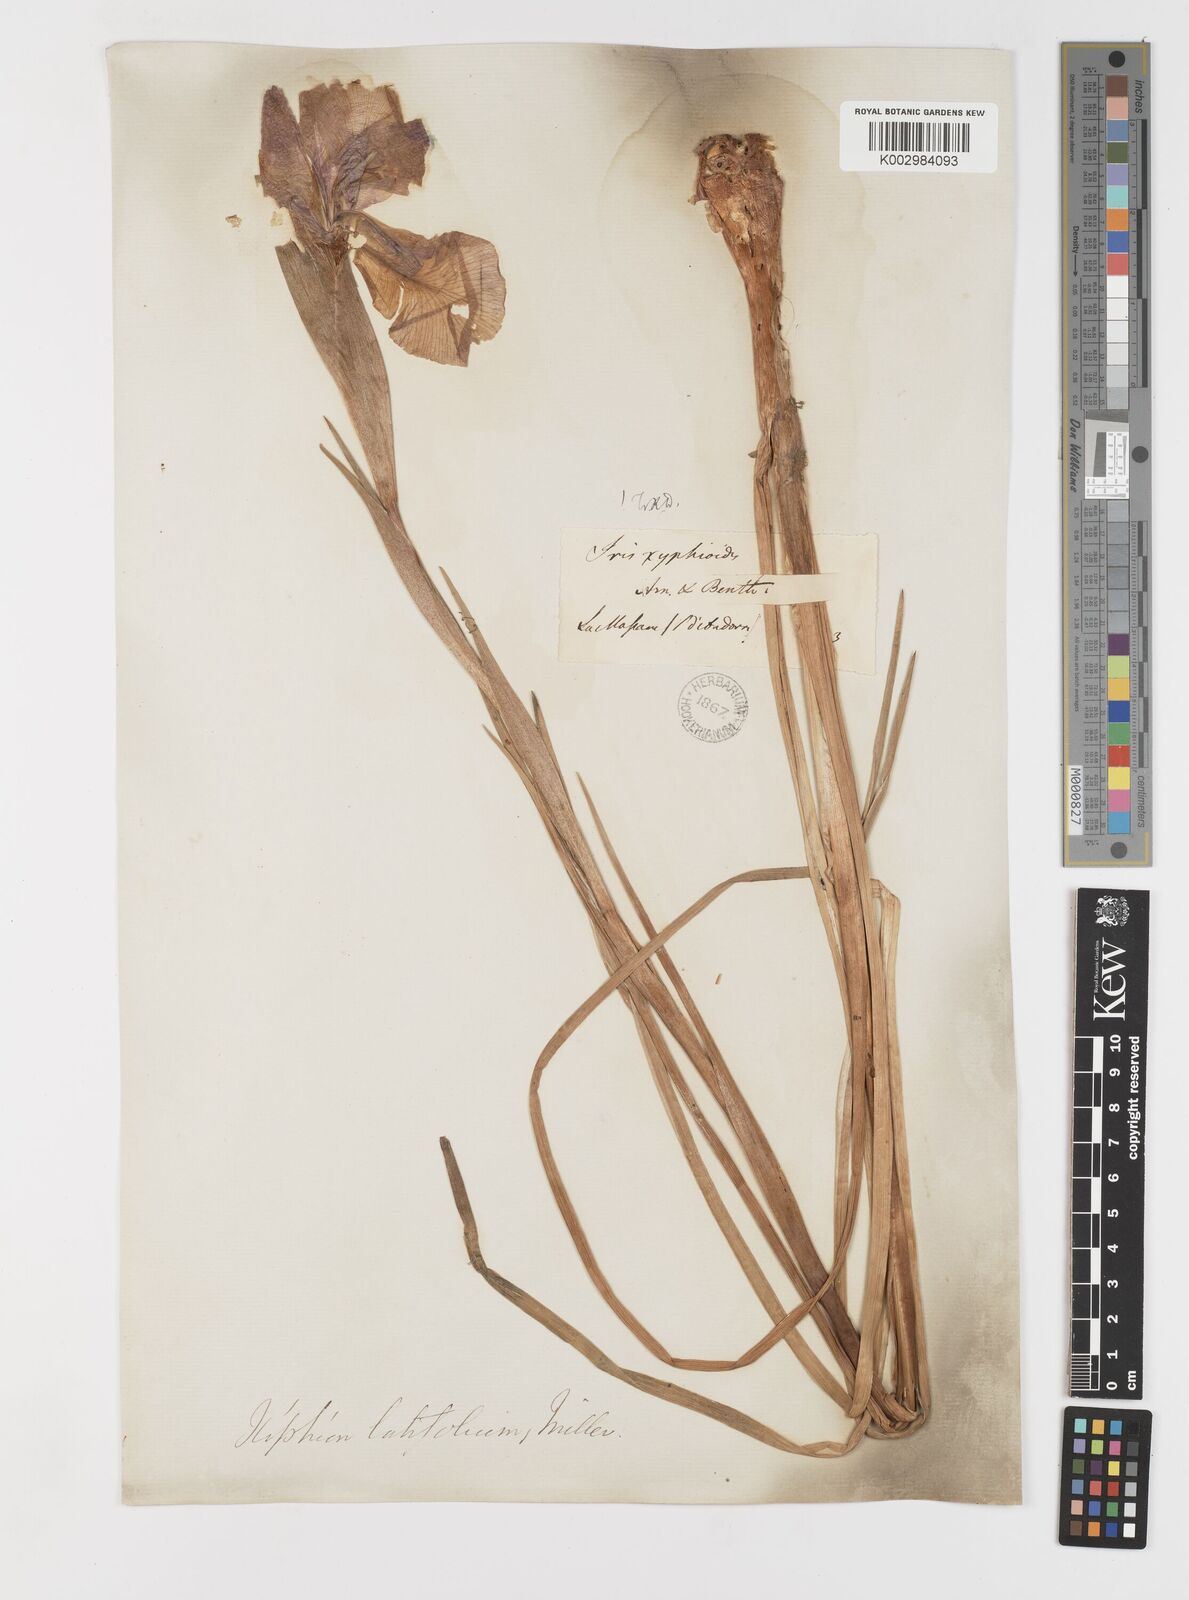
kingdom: Plantae
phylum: Tracheophyta
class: Liliopsida
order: Asparagales
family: Iridaceae
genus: Iris
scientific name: Iris jacquinii
